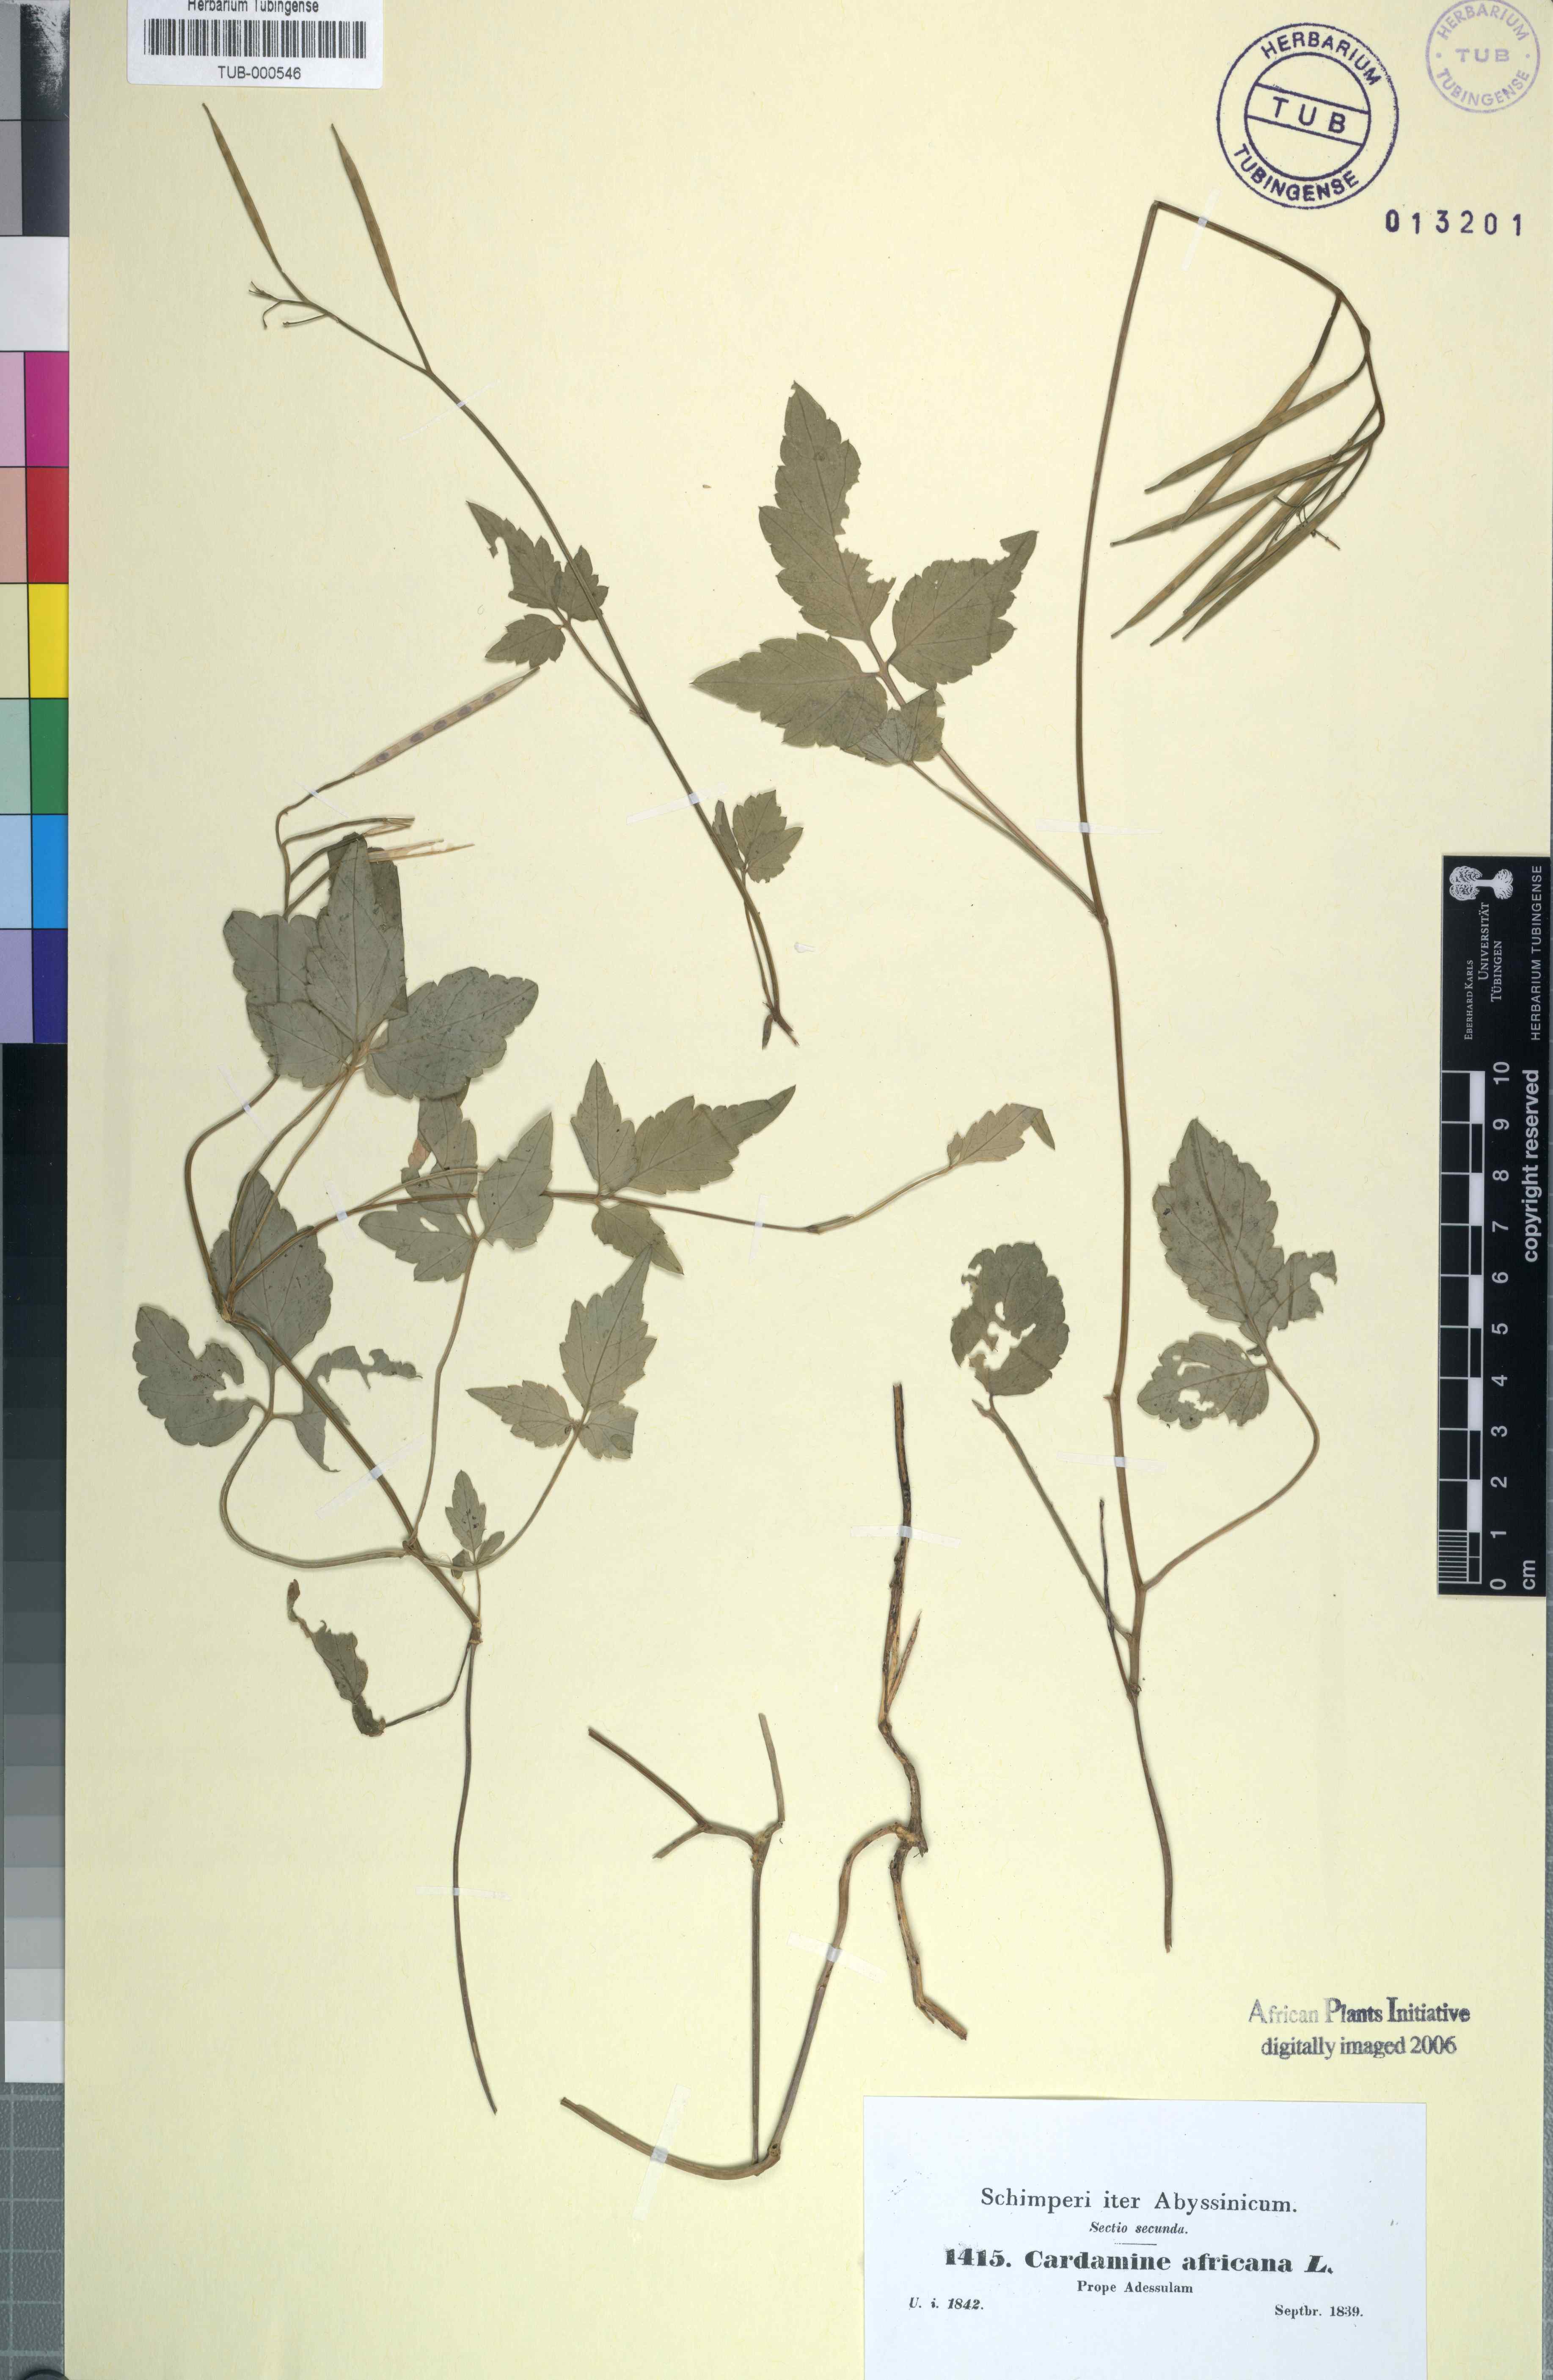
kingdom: Plantae
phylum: Tracheophyta
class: Magnoliopsida
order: Brassicales
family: Brassicaceae
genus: Cardamine
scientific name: Cardamine africana
